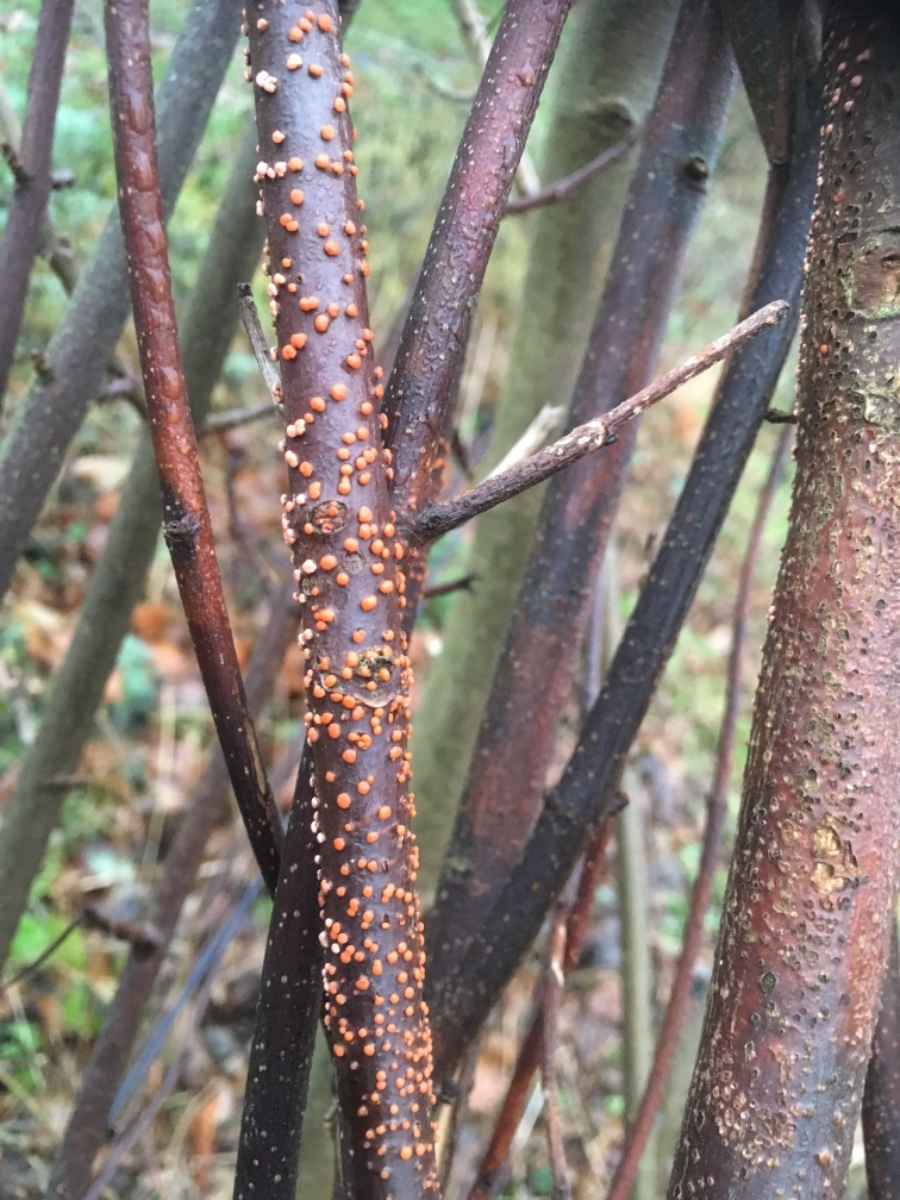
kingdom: Fungi
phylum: Ascomycota
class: Sordariomycetes
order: Hypocreales
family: Nectriaceae
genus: Nectria
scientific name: Nectria cinnabarina
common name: almindelig cinnobersvamp
